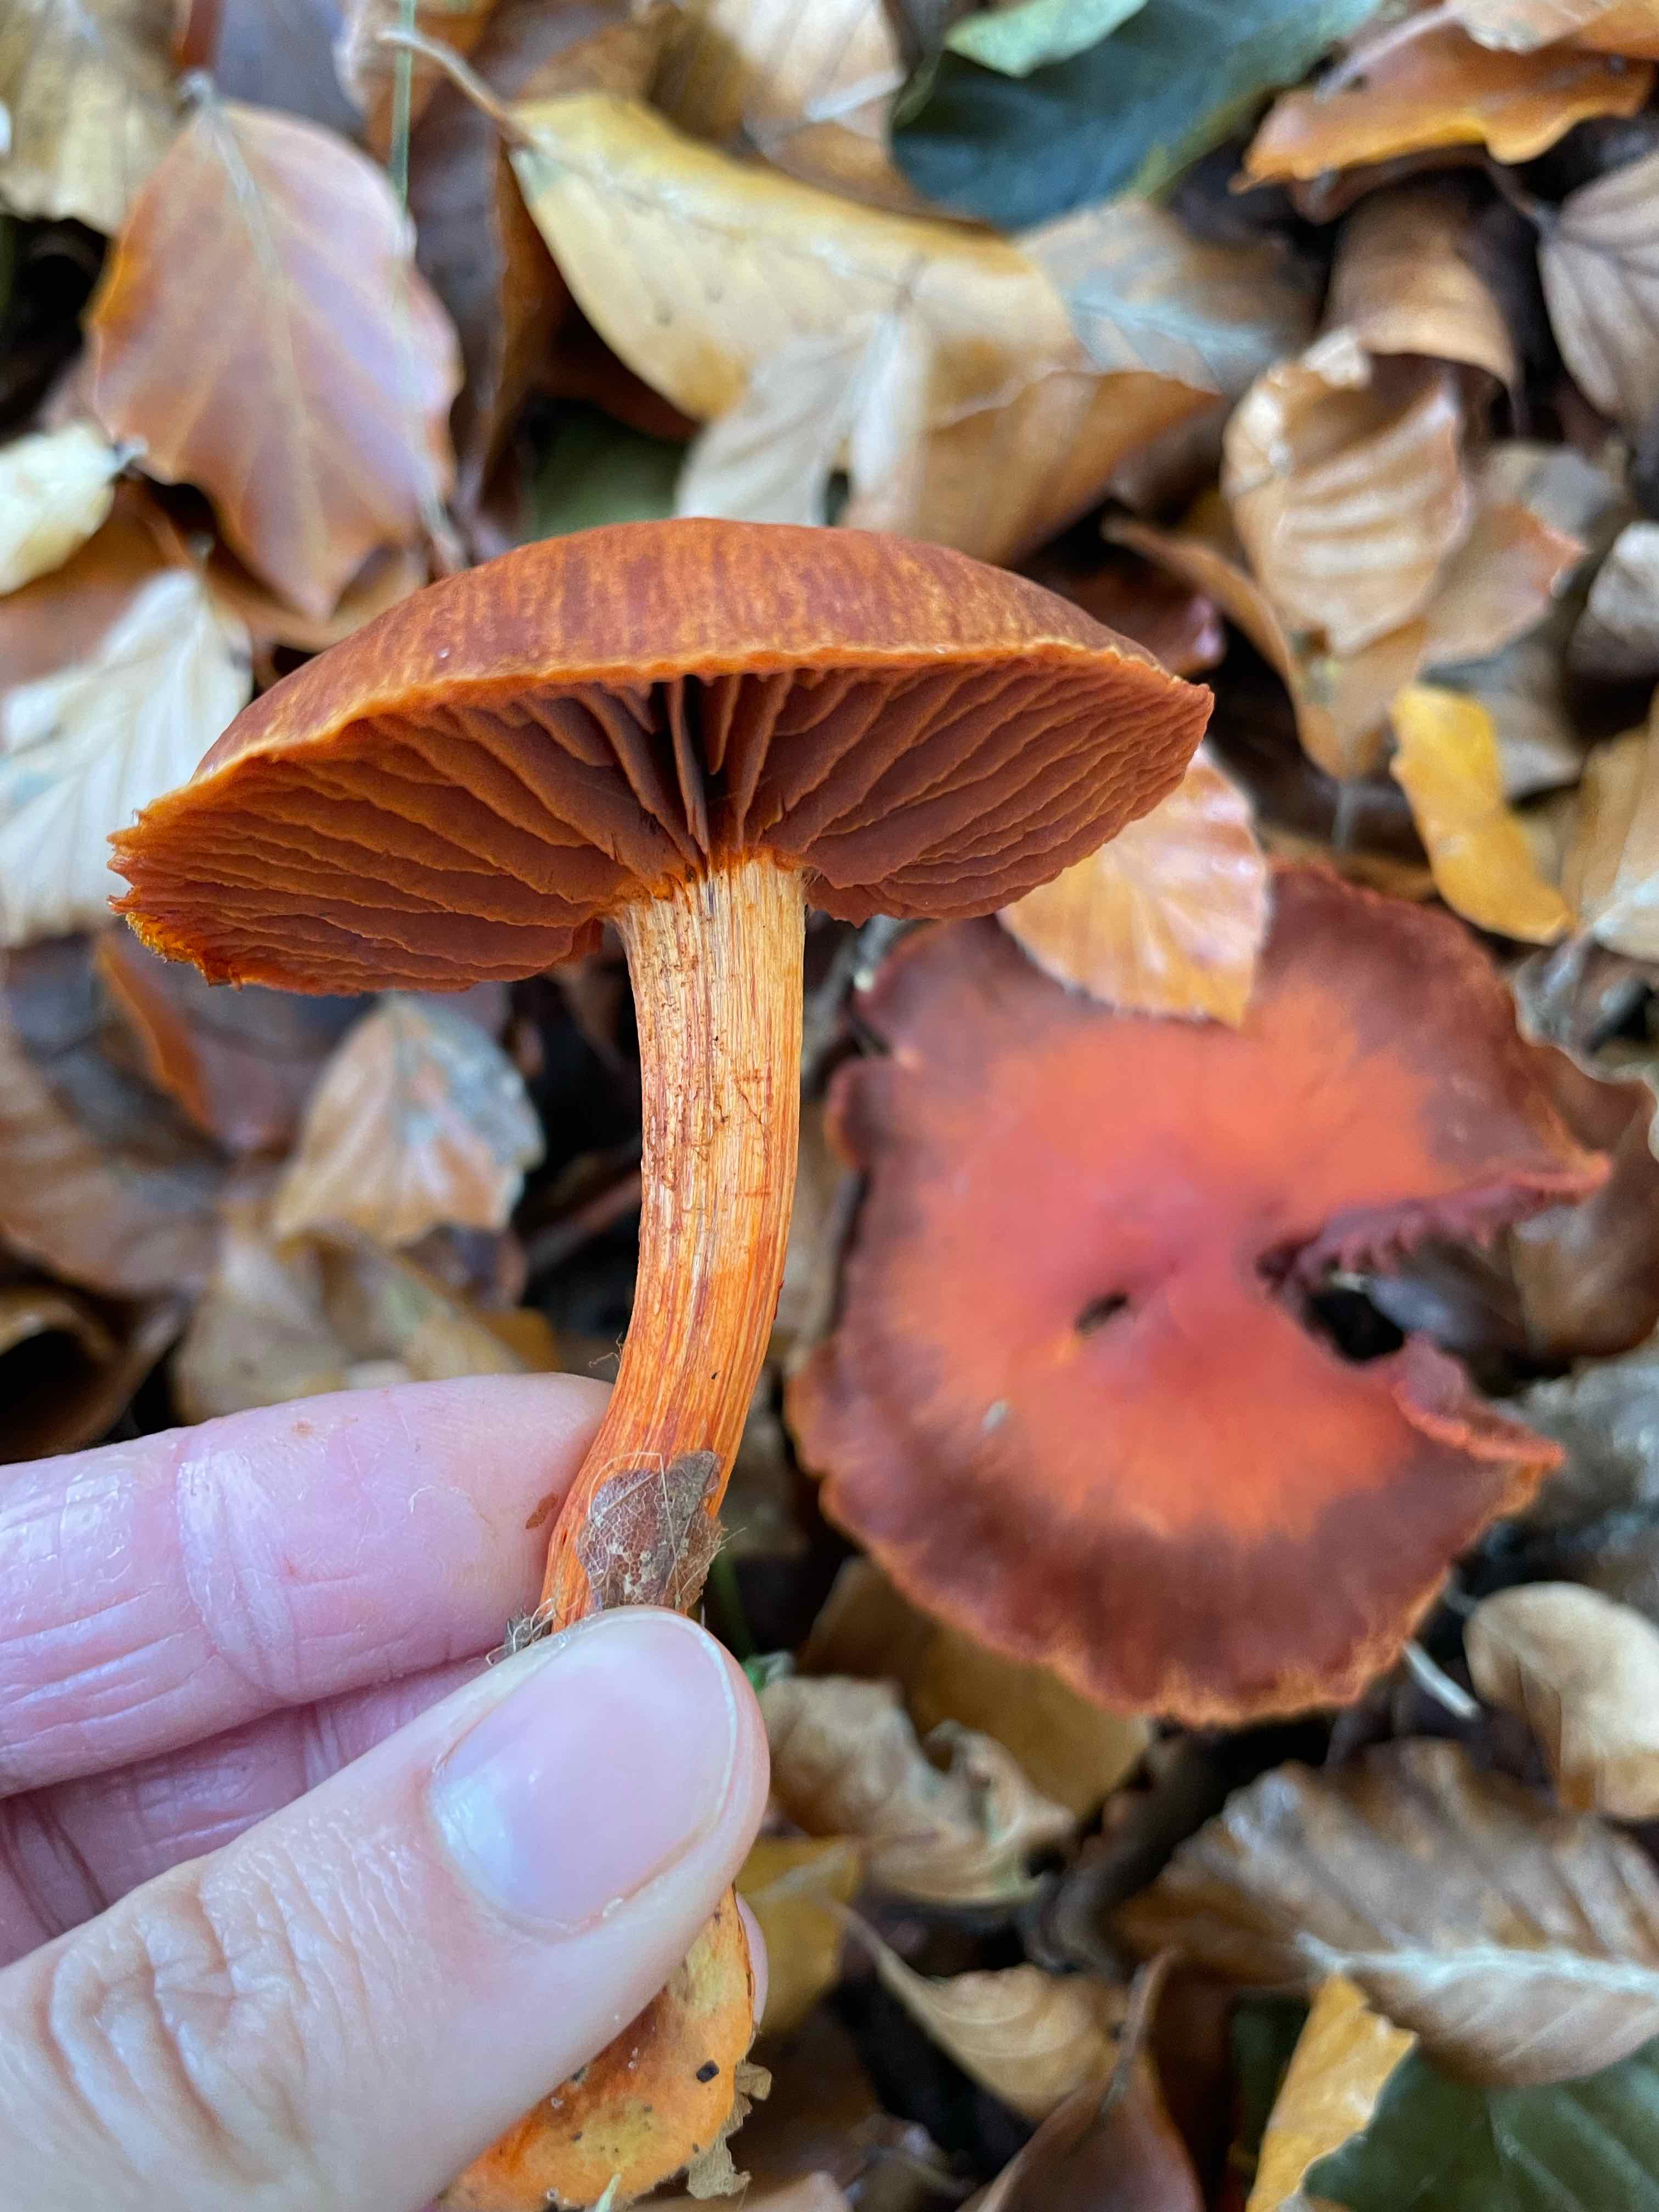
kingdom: Fungi
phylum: Basidiomycota
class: Agaricomycetes
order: Agaricales
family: Cortinariaceae
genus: Cortinarius
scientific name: Cortinarius cinnabarinus
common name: cinnober-slørhat
